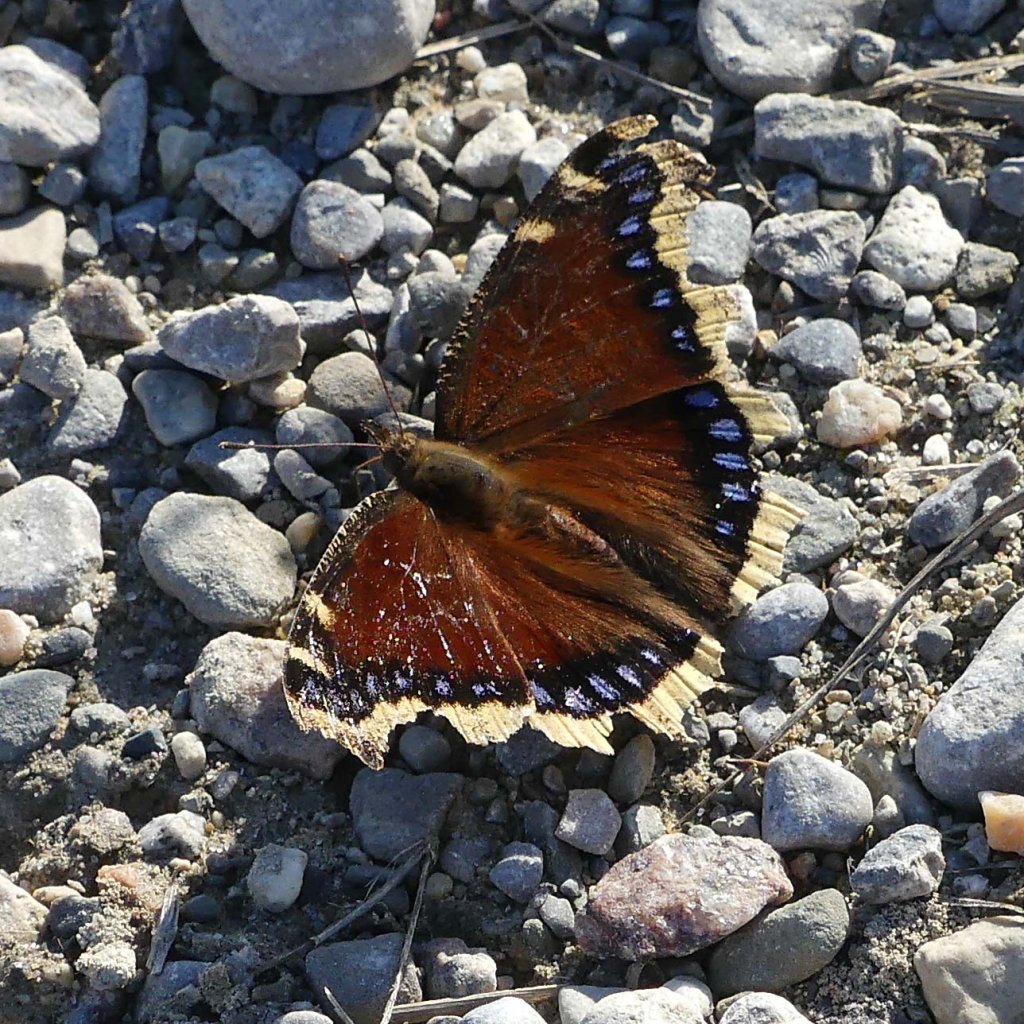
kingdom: Animalia
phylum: Arthropoda
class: Insecta
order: Lepidoptera
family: Nymphalidae
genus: Nymphalis
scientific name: Nymphalis antiopa
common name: Mourning Cloak
